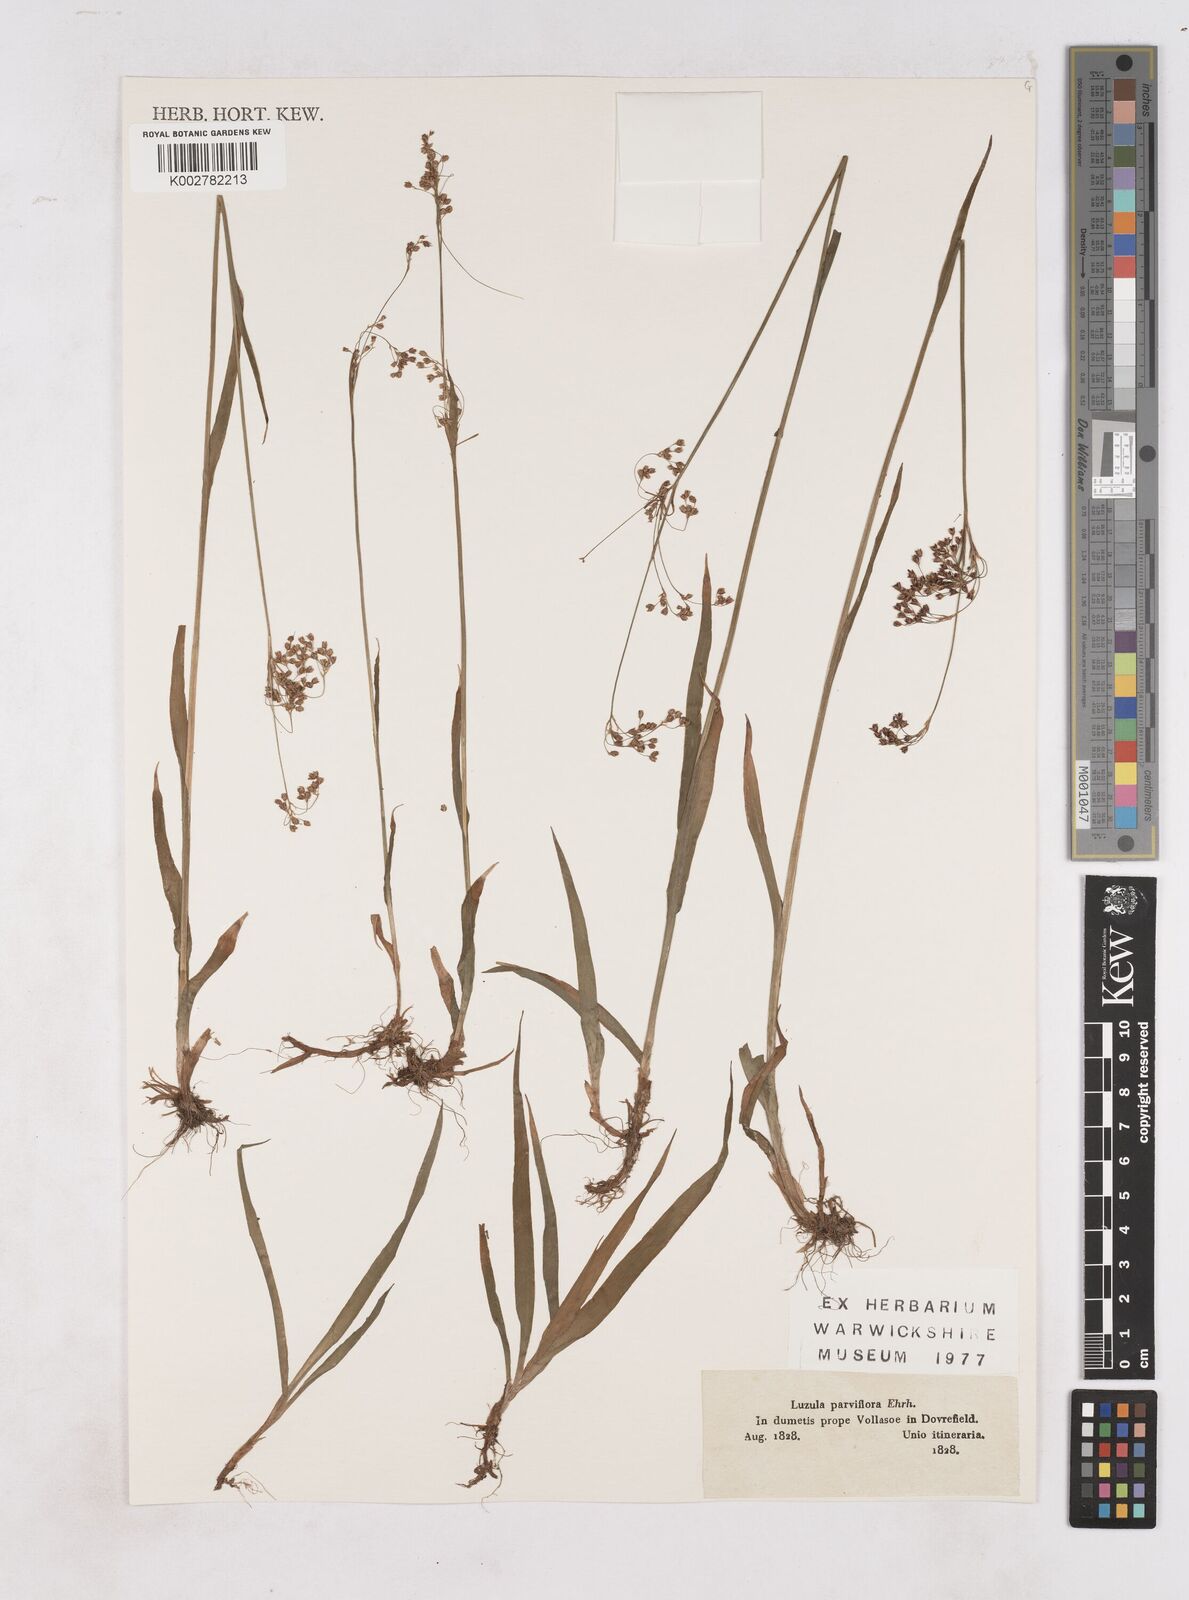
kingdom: Plantae
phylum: Tracheophyta
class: Liliopsida
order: Poales
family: Juncaceae
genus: Luzula
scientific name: Luzula parviflora
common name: Millet woodrush
